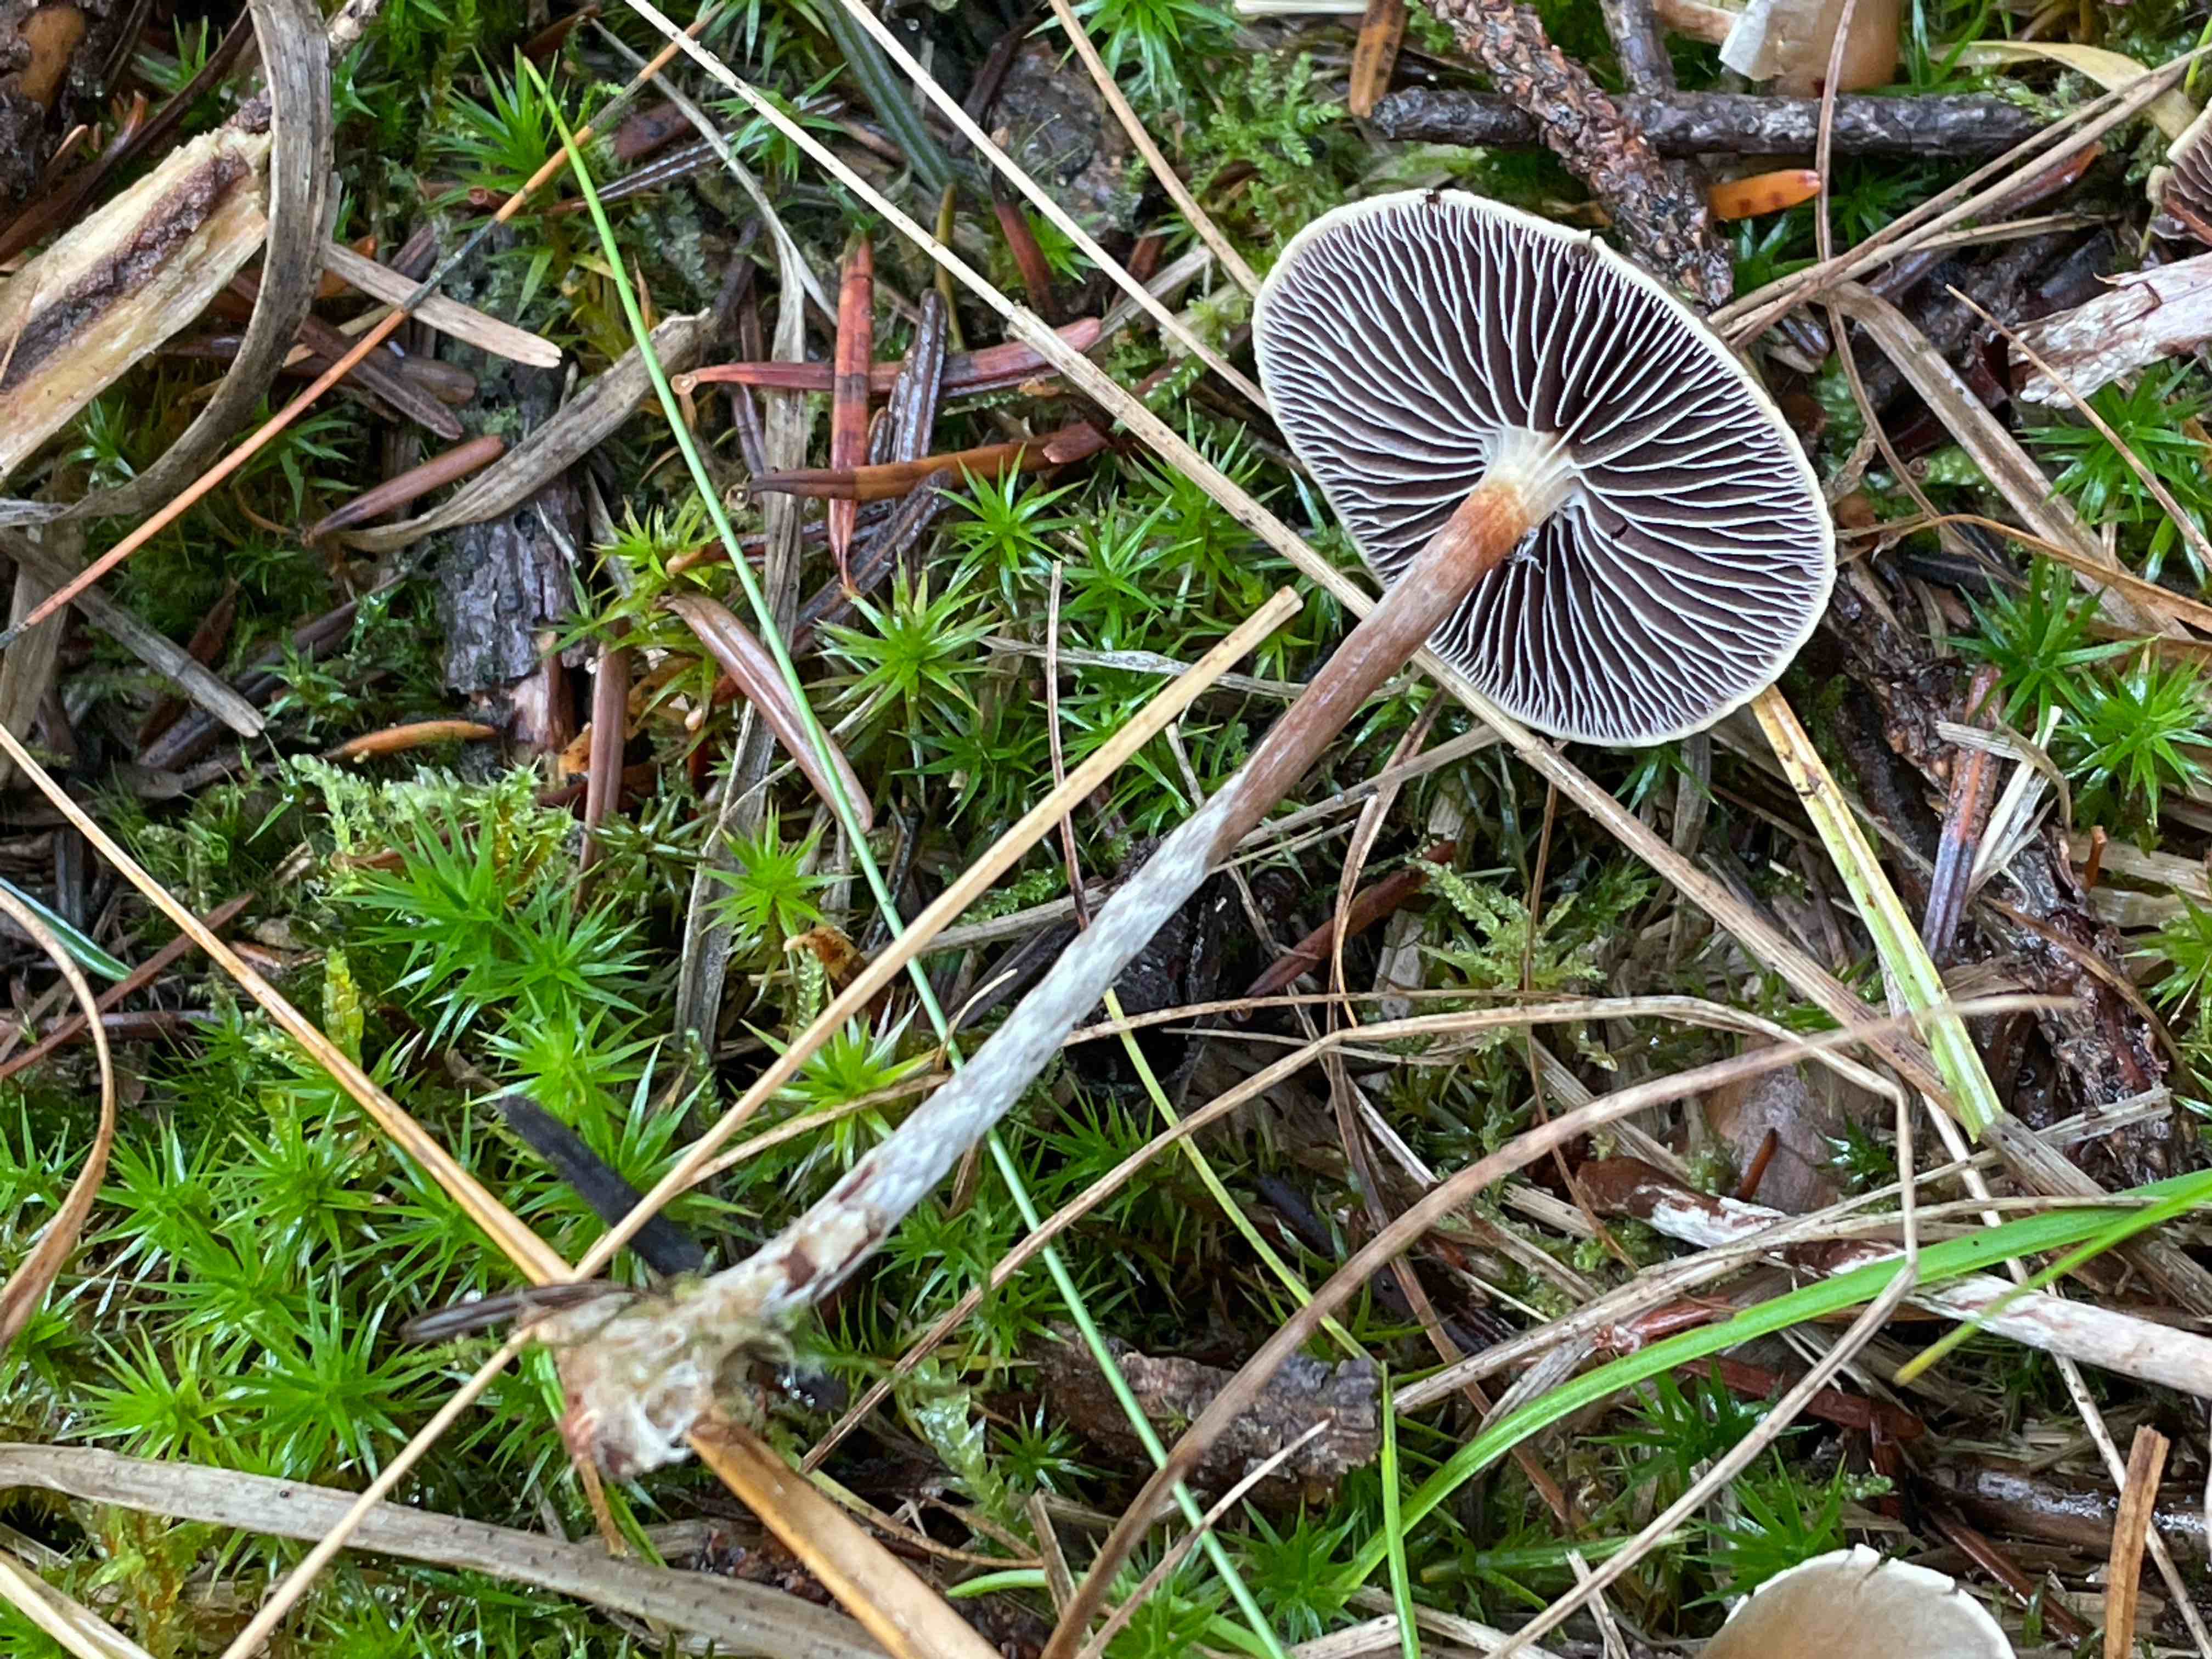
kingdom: Fungi
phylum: Basidiomycota
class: Agaricomycetes
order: Agaricales
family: Strophariaceae
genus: Hypholoma
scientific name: Hypholoma marginatum
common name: enlig svovlhat
